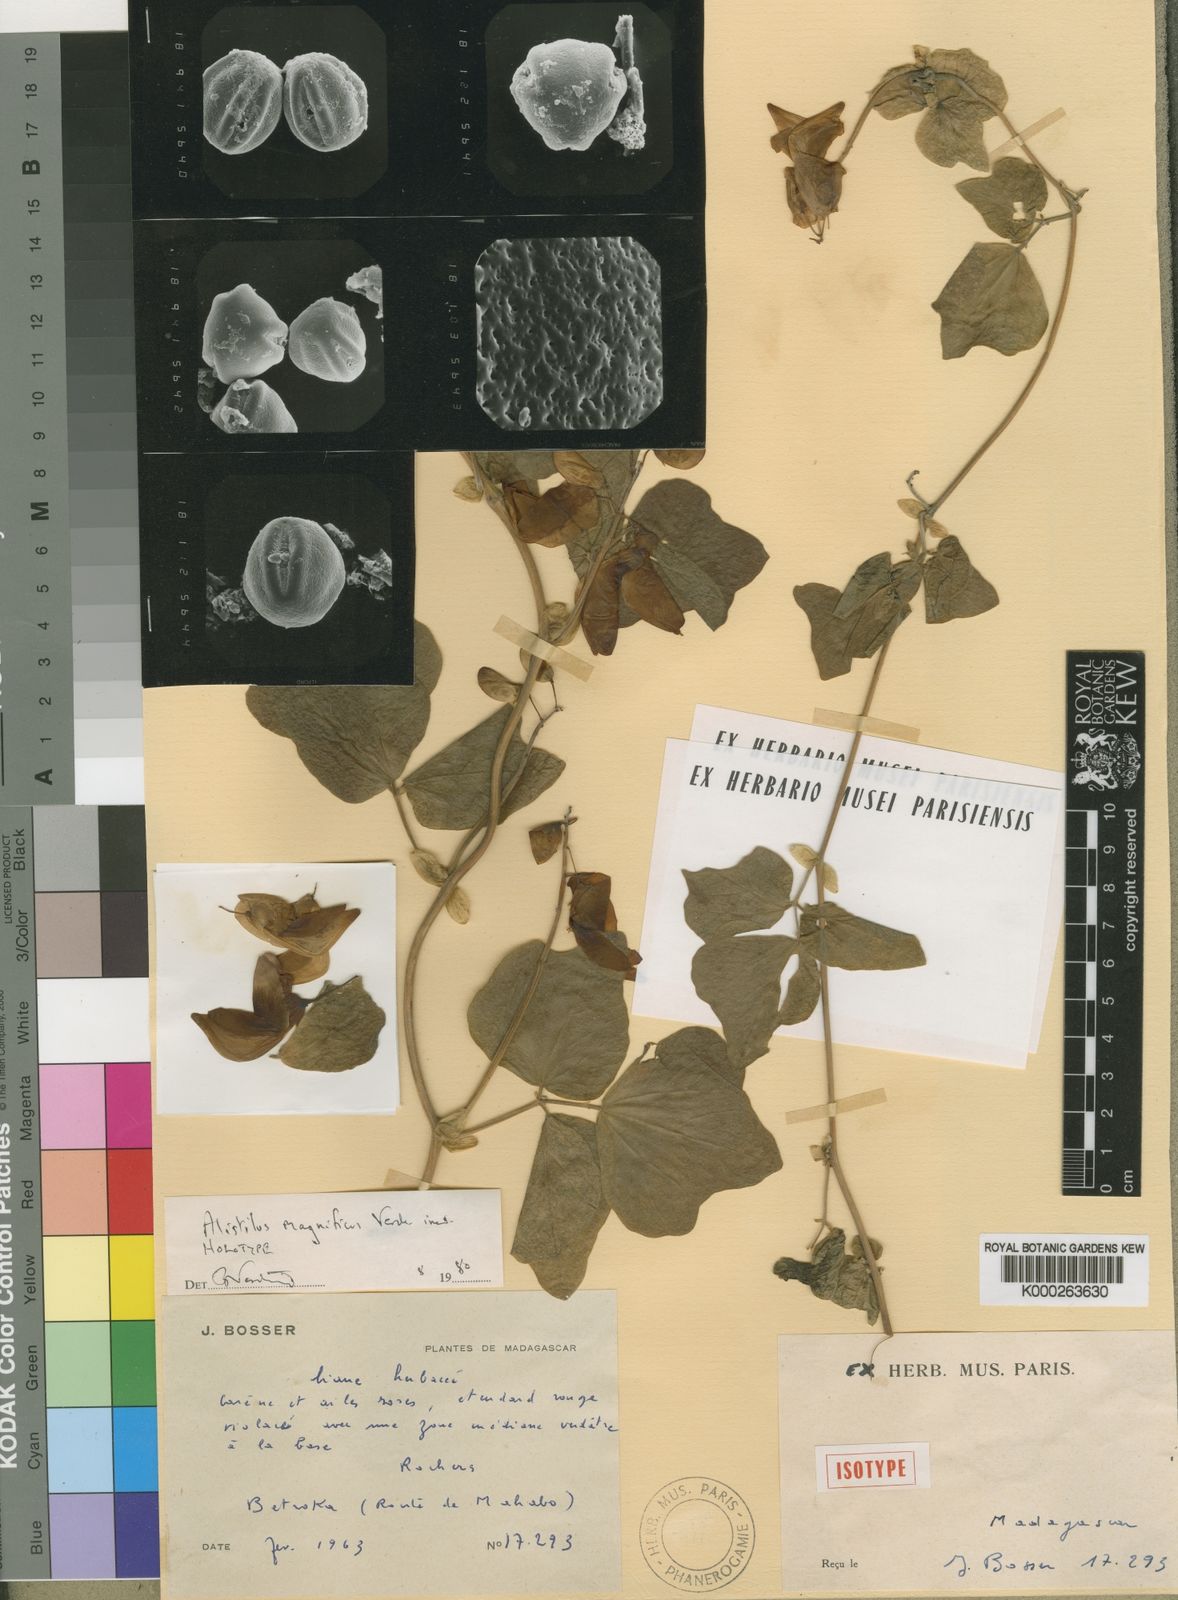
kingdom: Plantae
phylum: Tracheophyta
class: Magnoliopsida
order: Fabales
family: Fabaceae
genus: Macrotyloma
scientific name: Macrotyloma
